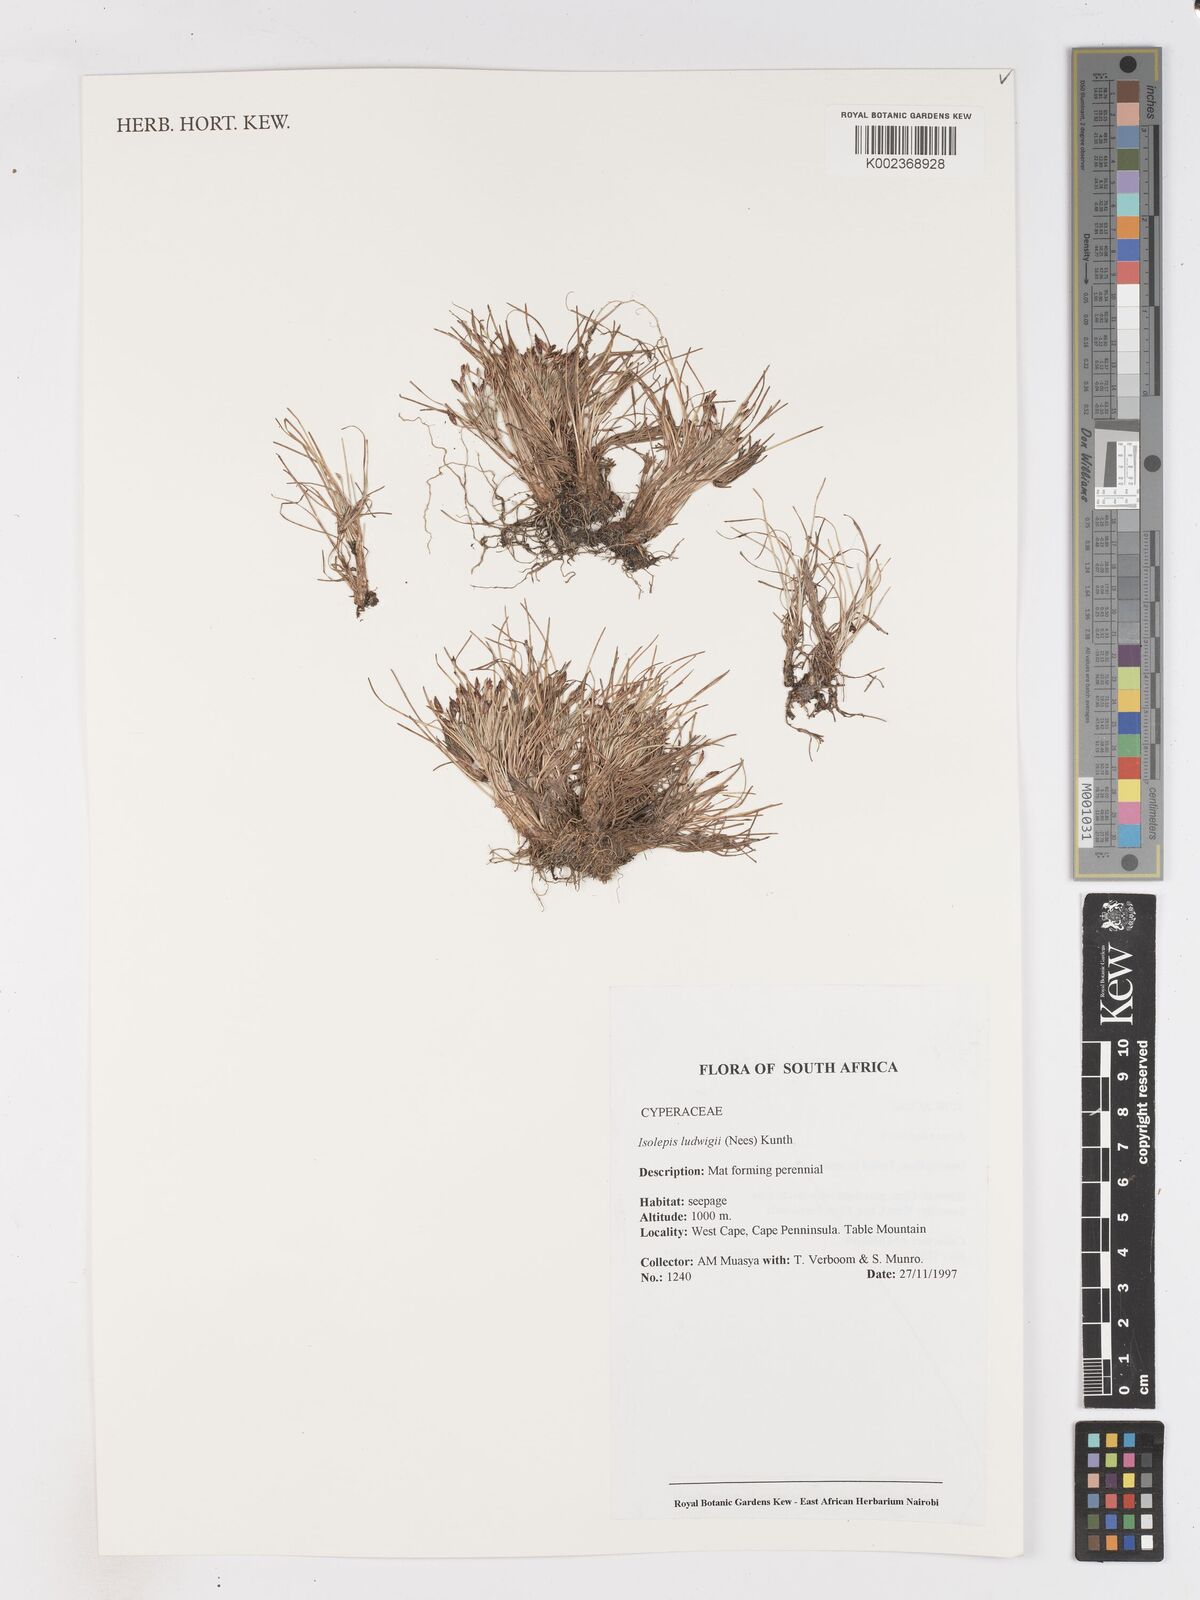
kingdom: Plantae
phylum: Tracheophyta
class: Liliopsida
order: Poales
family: Cyperaceae
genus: Isolepis
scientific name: Isolepis ludwigii
